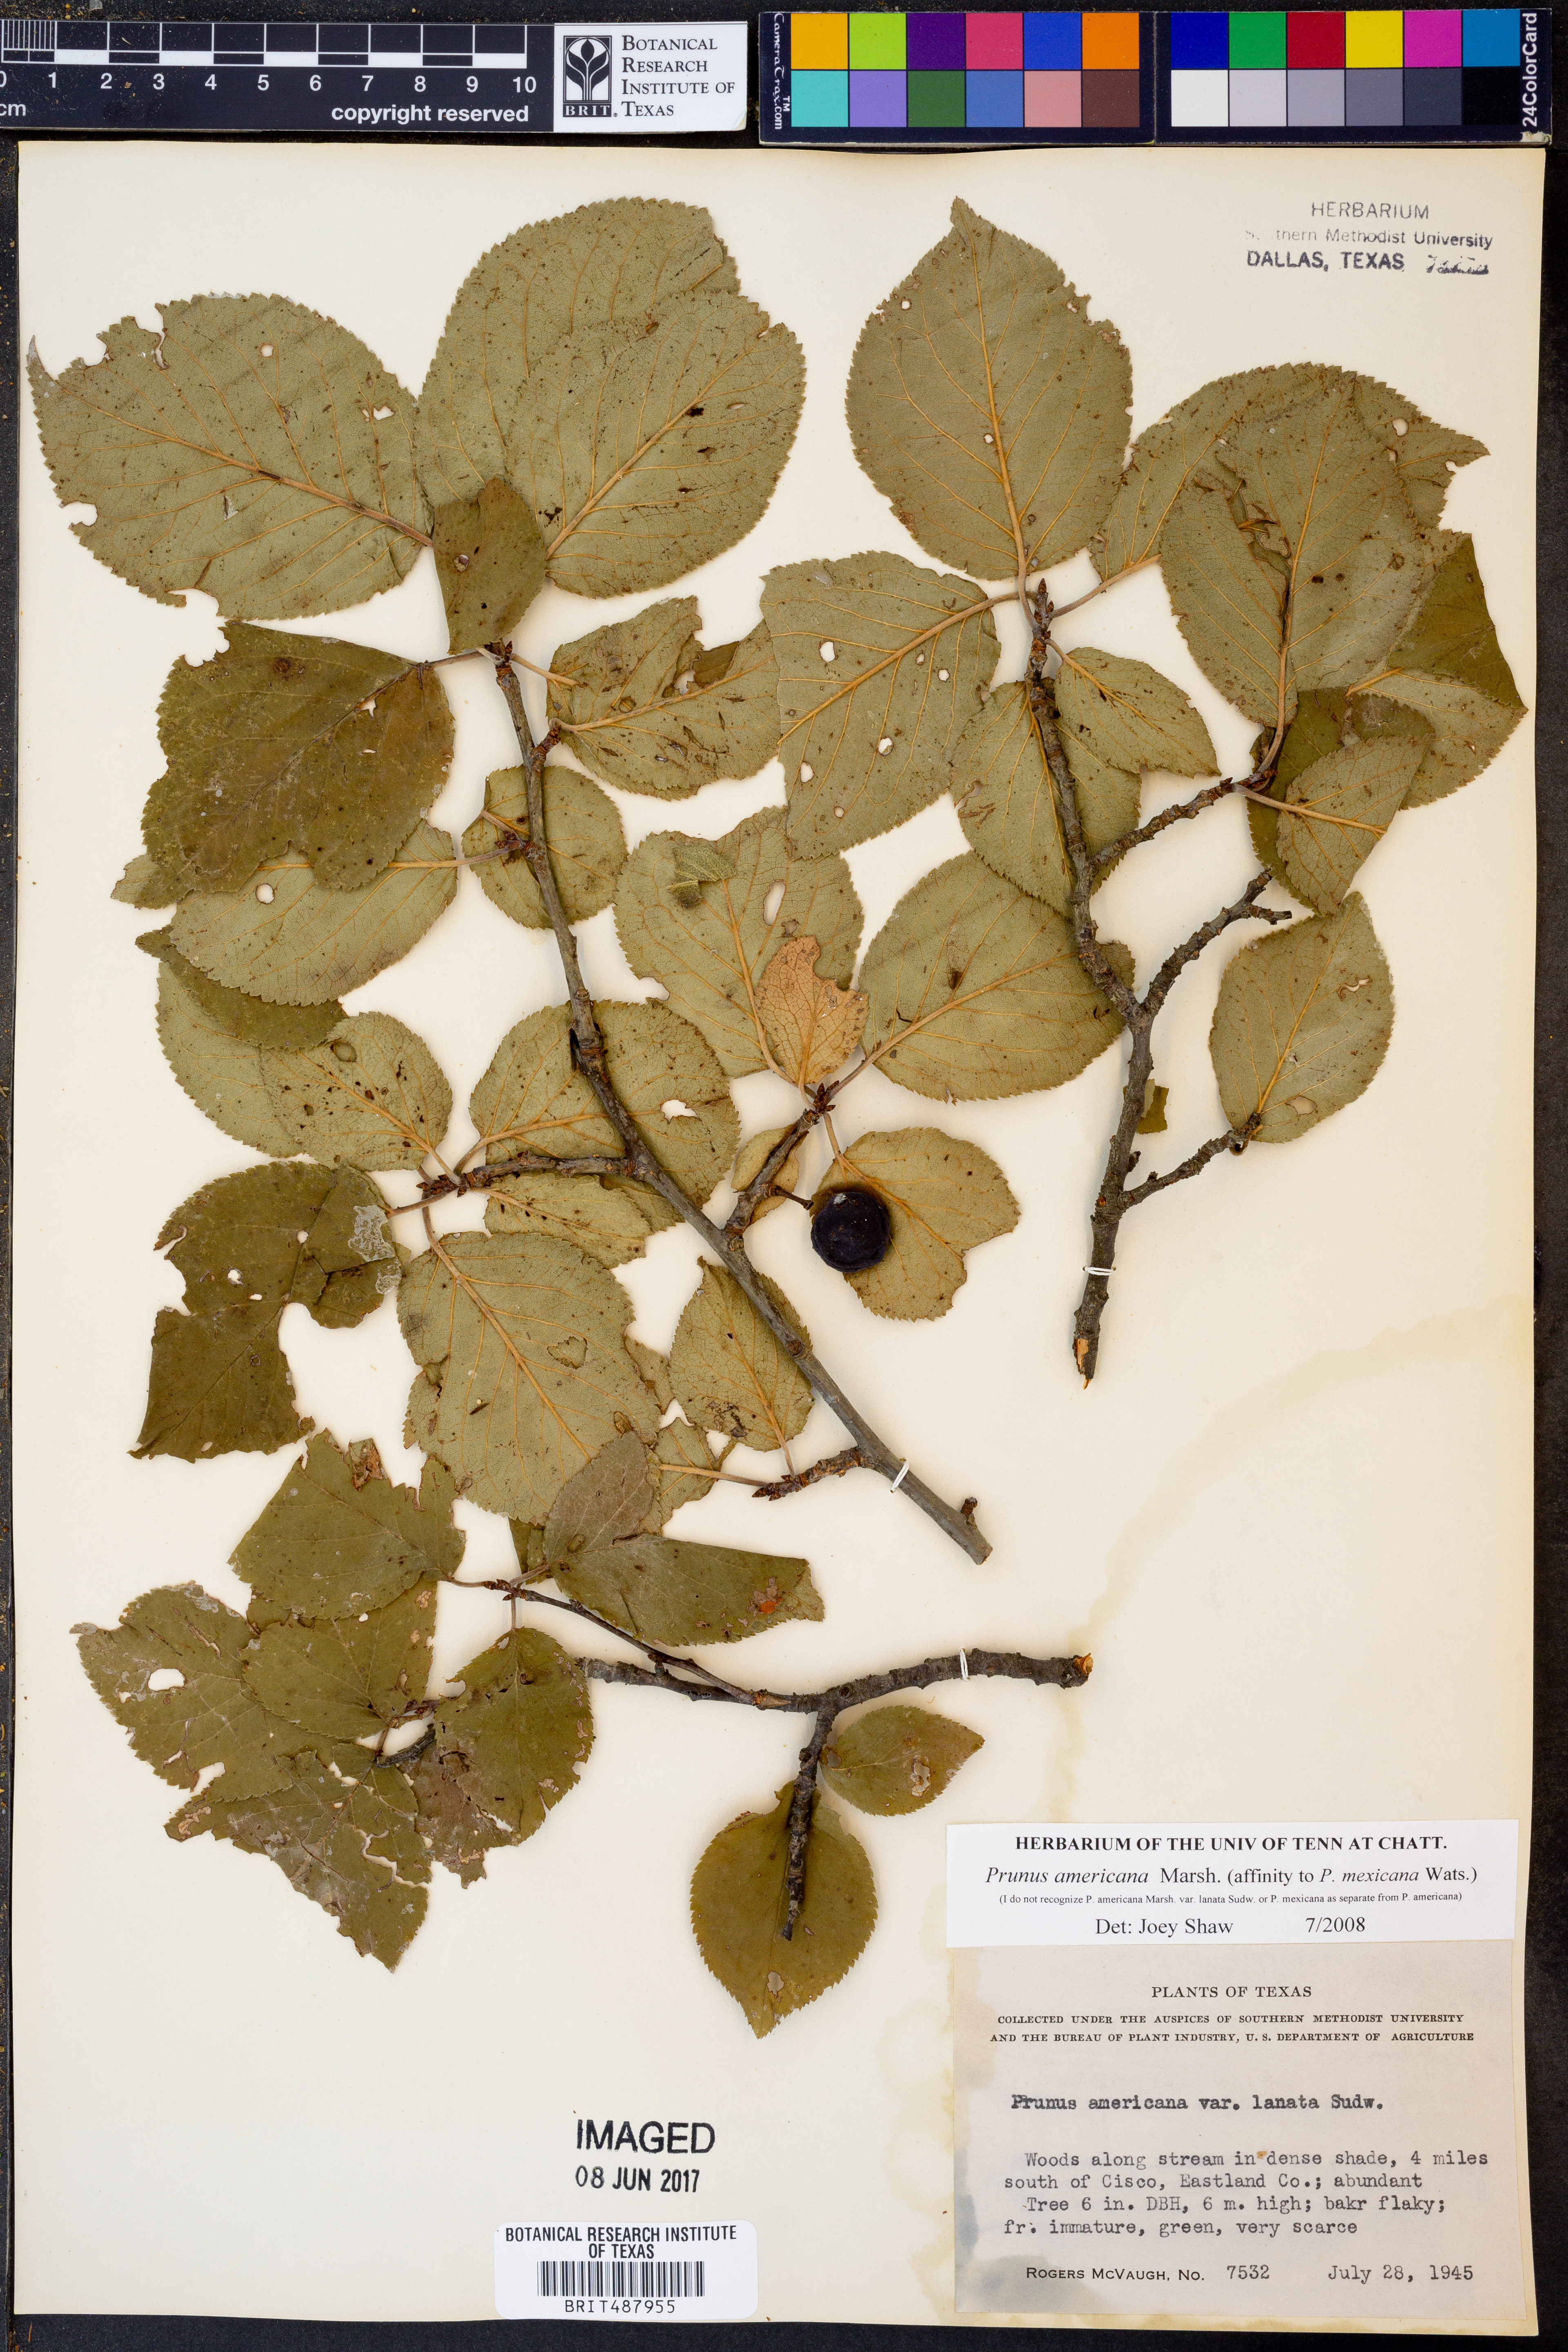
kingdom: Plantae
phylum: Tracheophyta
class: Magnoliopsida
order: Rosales
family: Rosaceae
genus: Prunus
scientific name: Prunus americana
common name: American plum
